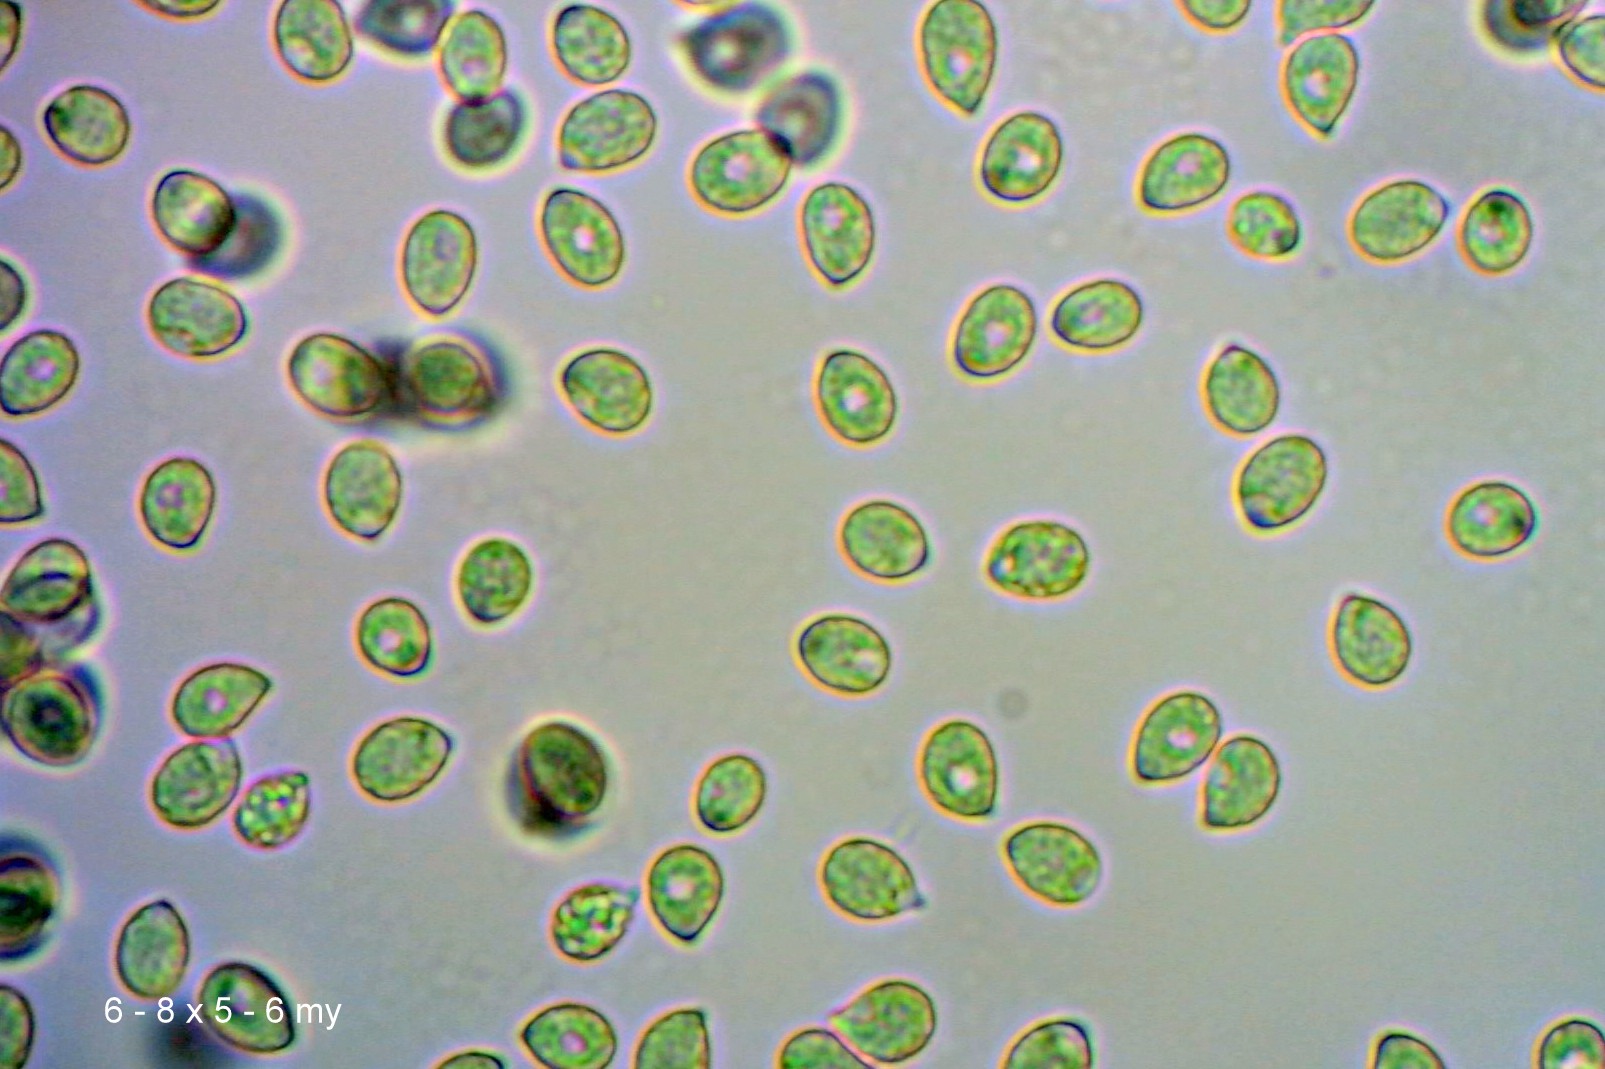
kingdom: Fungi
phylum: Basidiomycota
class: Agaricomycetes
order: Agaricales
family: Hygrophoraceae
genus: Cuphophyllus
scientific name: Cuphophyllus flavipes
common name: gulfodet vokshat
